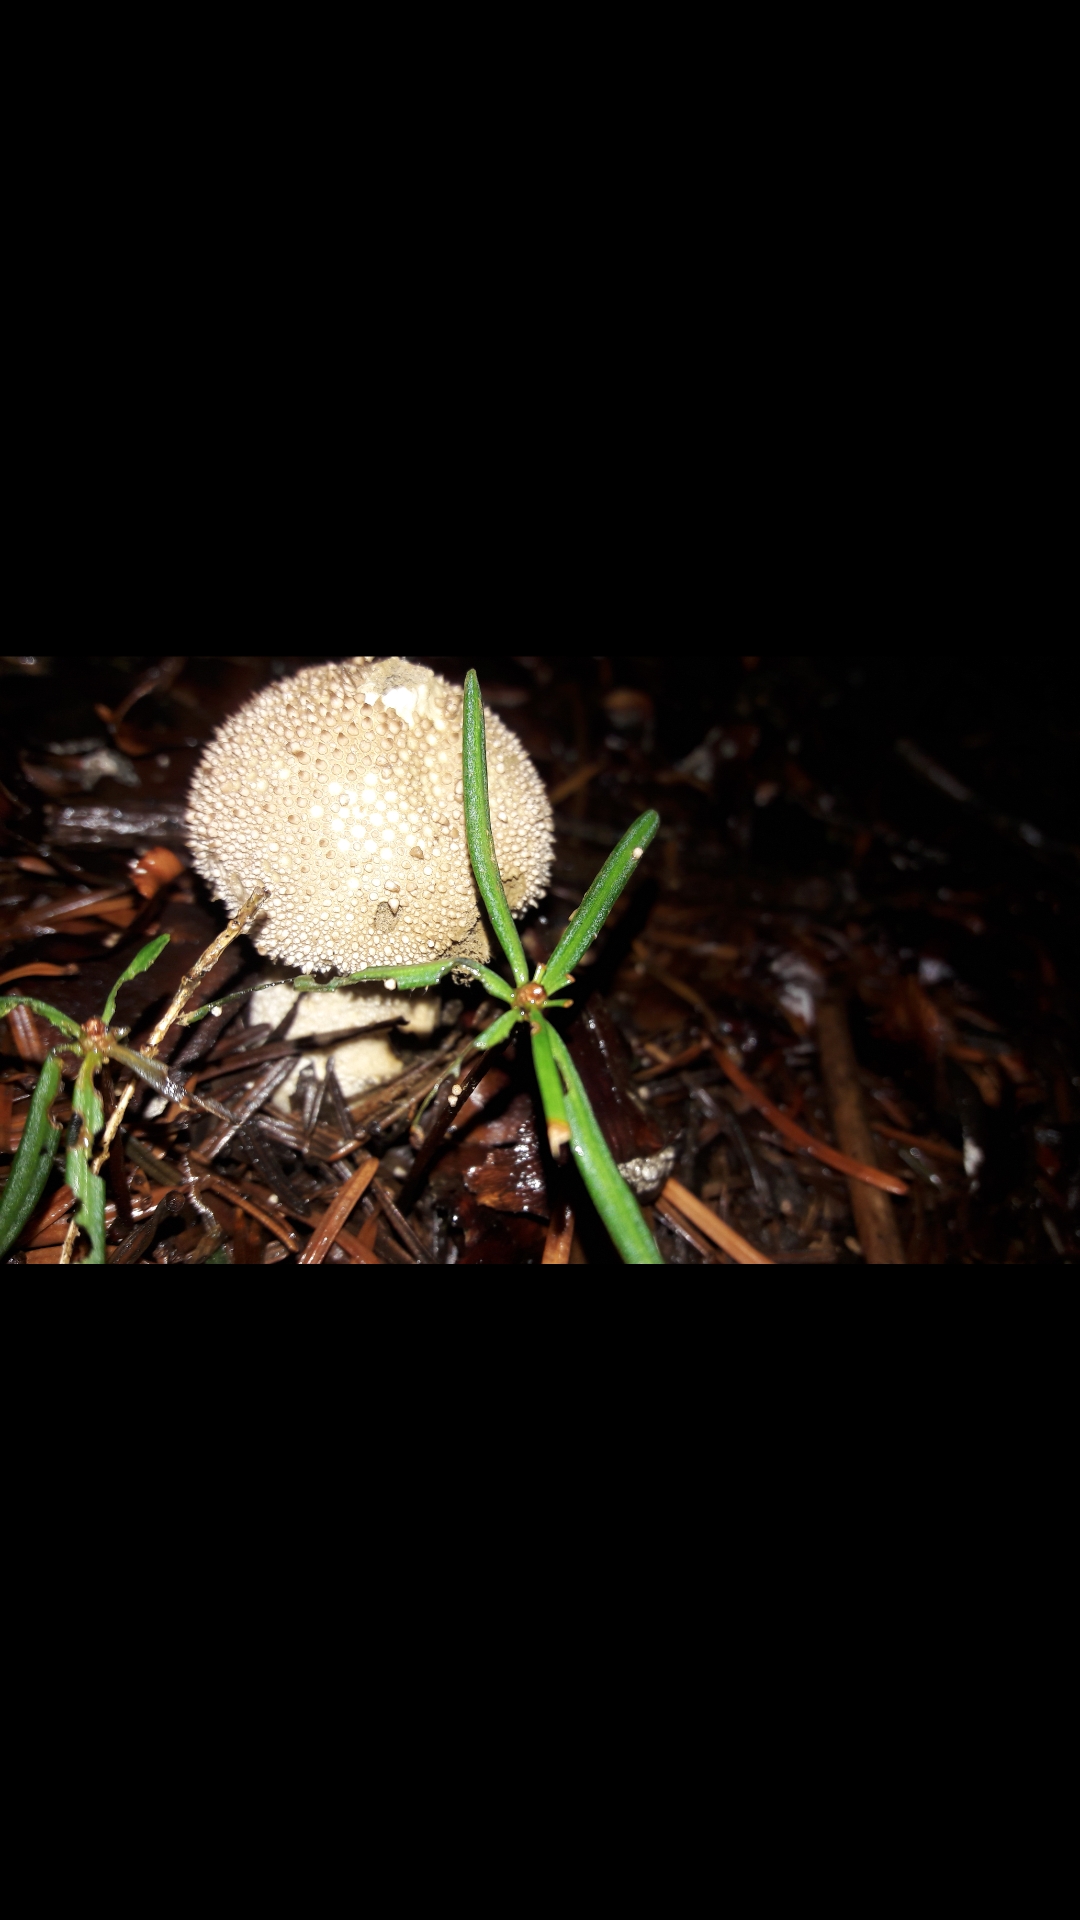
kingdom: Fungi
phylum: Basidiomycota
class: Agaricomycetes
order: Agaricales
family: Lycoperdaceae
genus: Lycoperdon
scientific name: Lycoperdon perlatum
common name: krystal-støvbold
